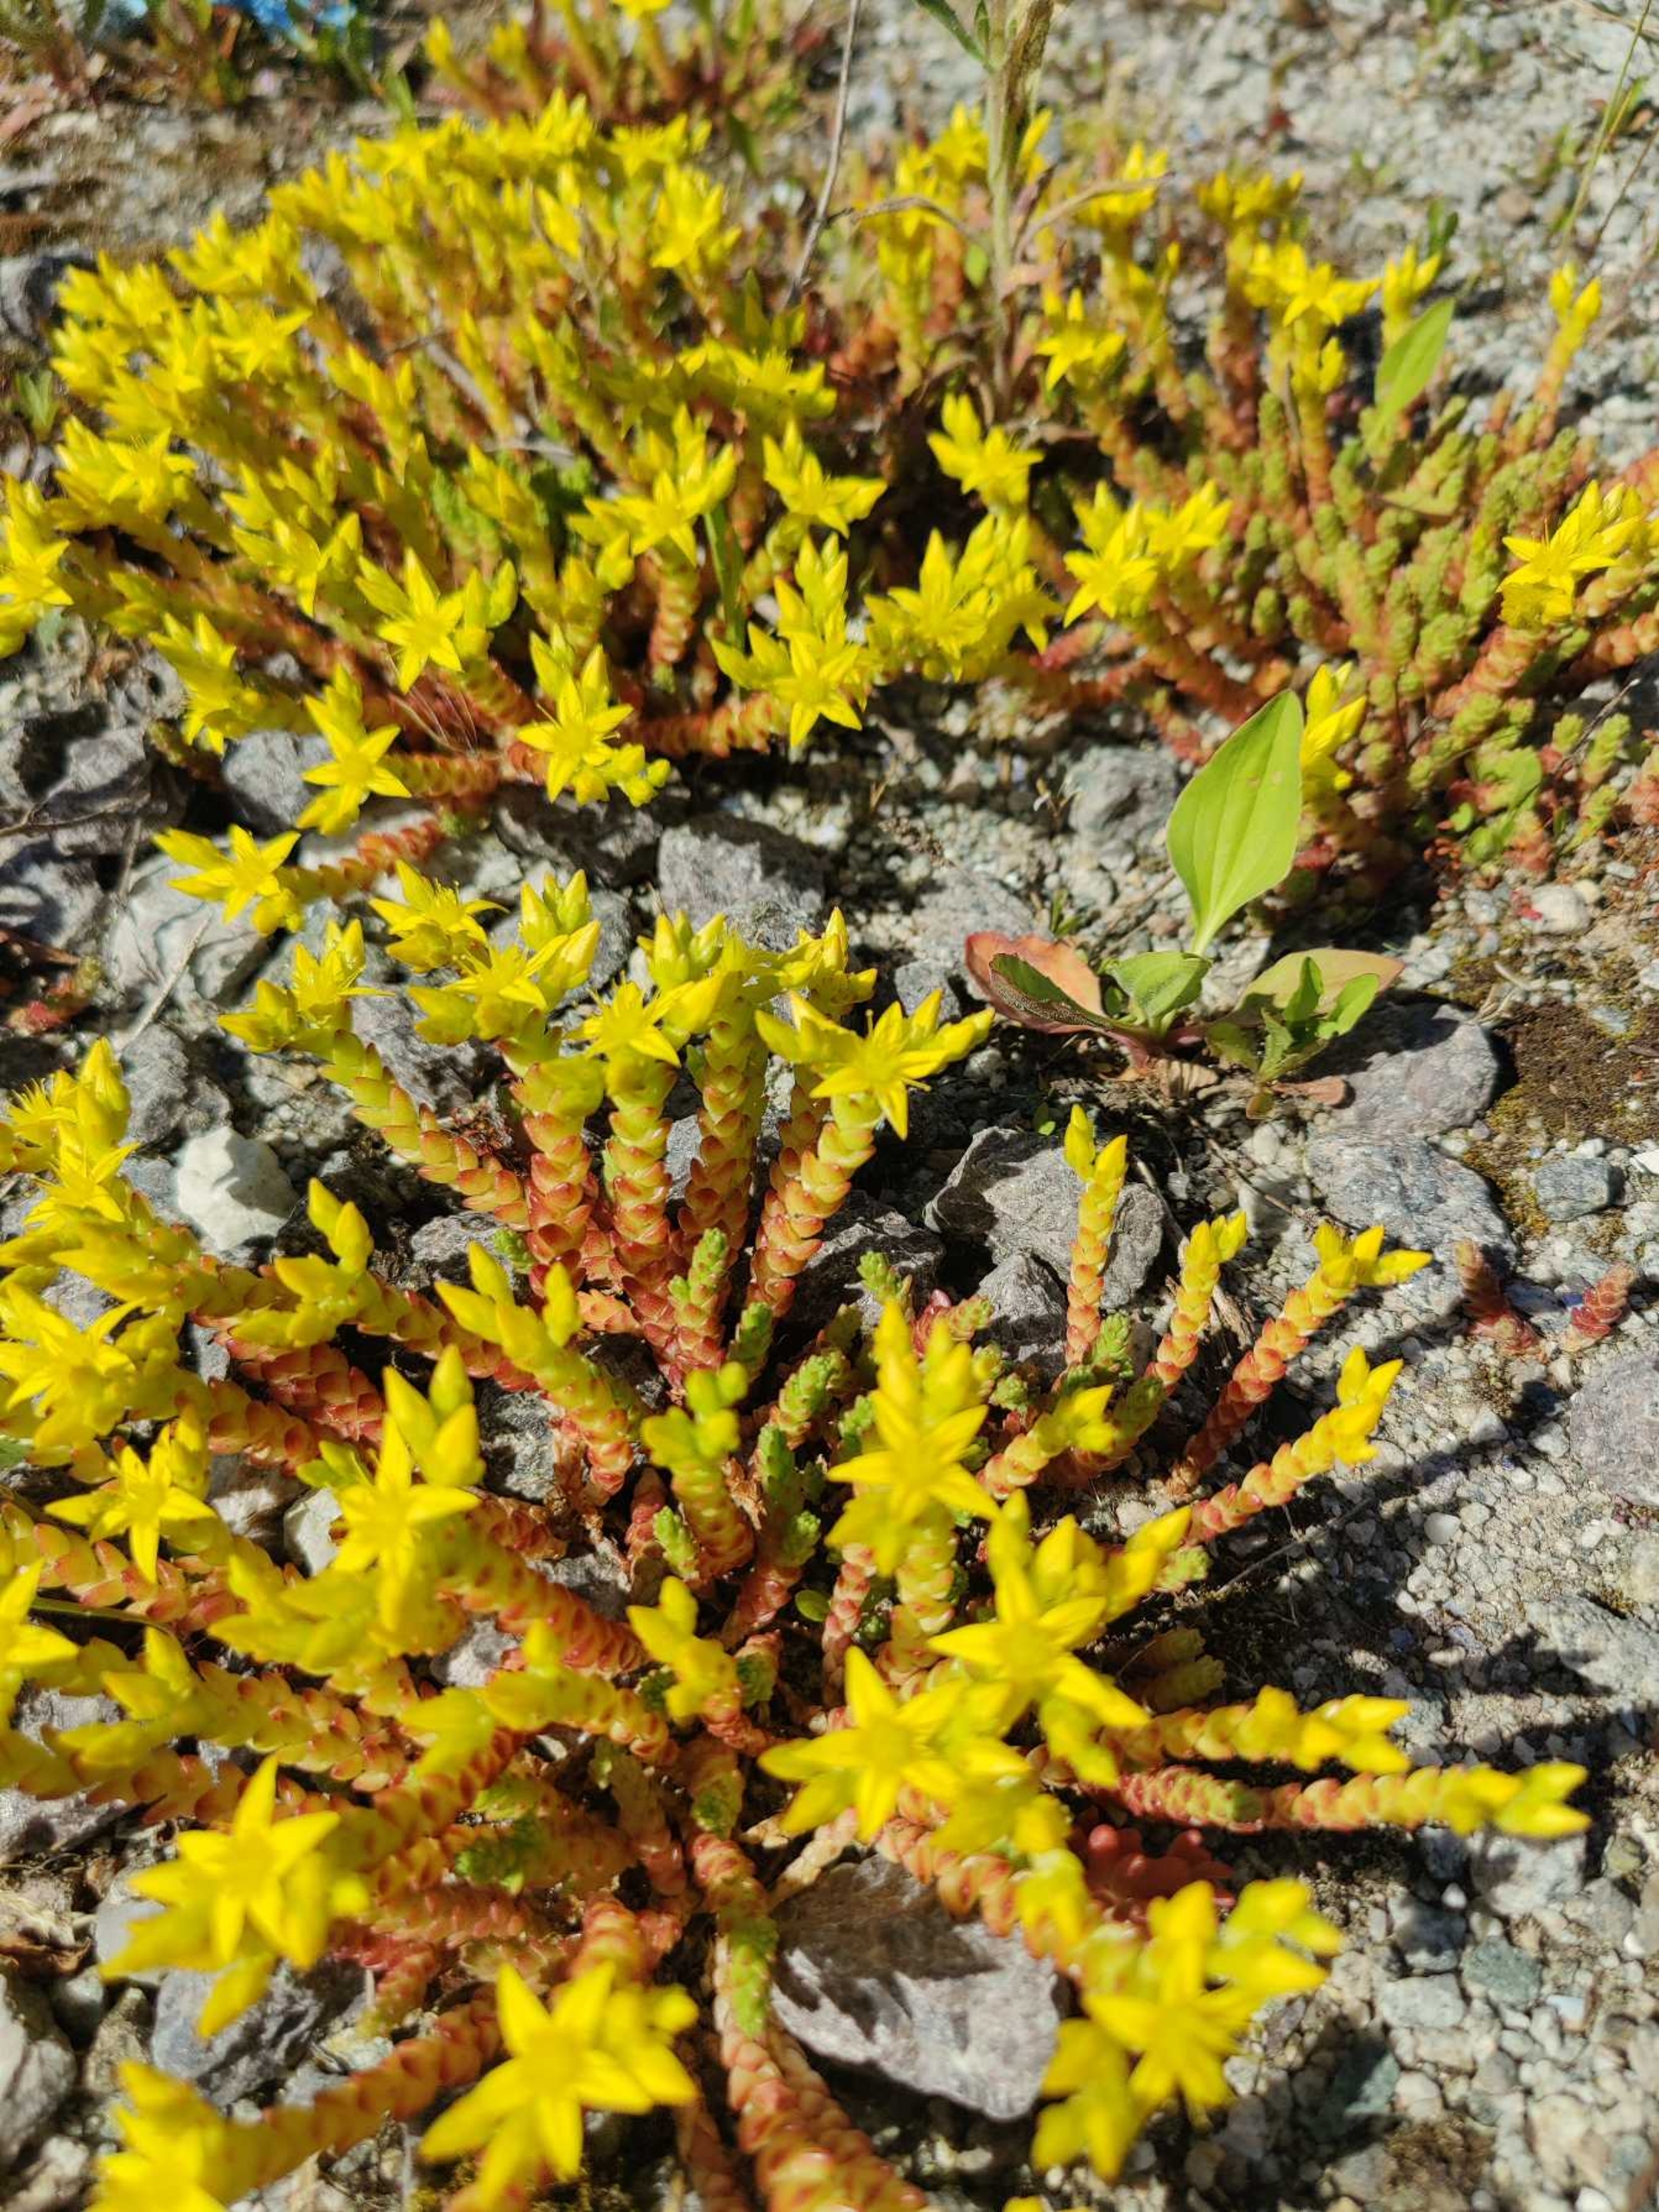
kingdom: Plantae
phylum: Tracheophyta
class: Magnoliopsida
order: Saxifragales
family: Crassulaceae
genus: Sedum
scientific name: Sedum acre
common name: Bidende stenurt
